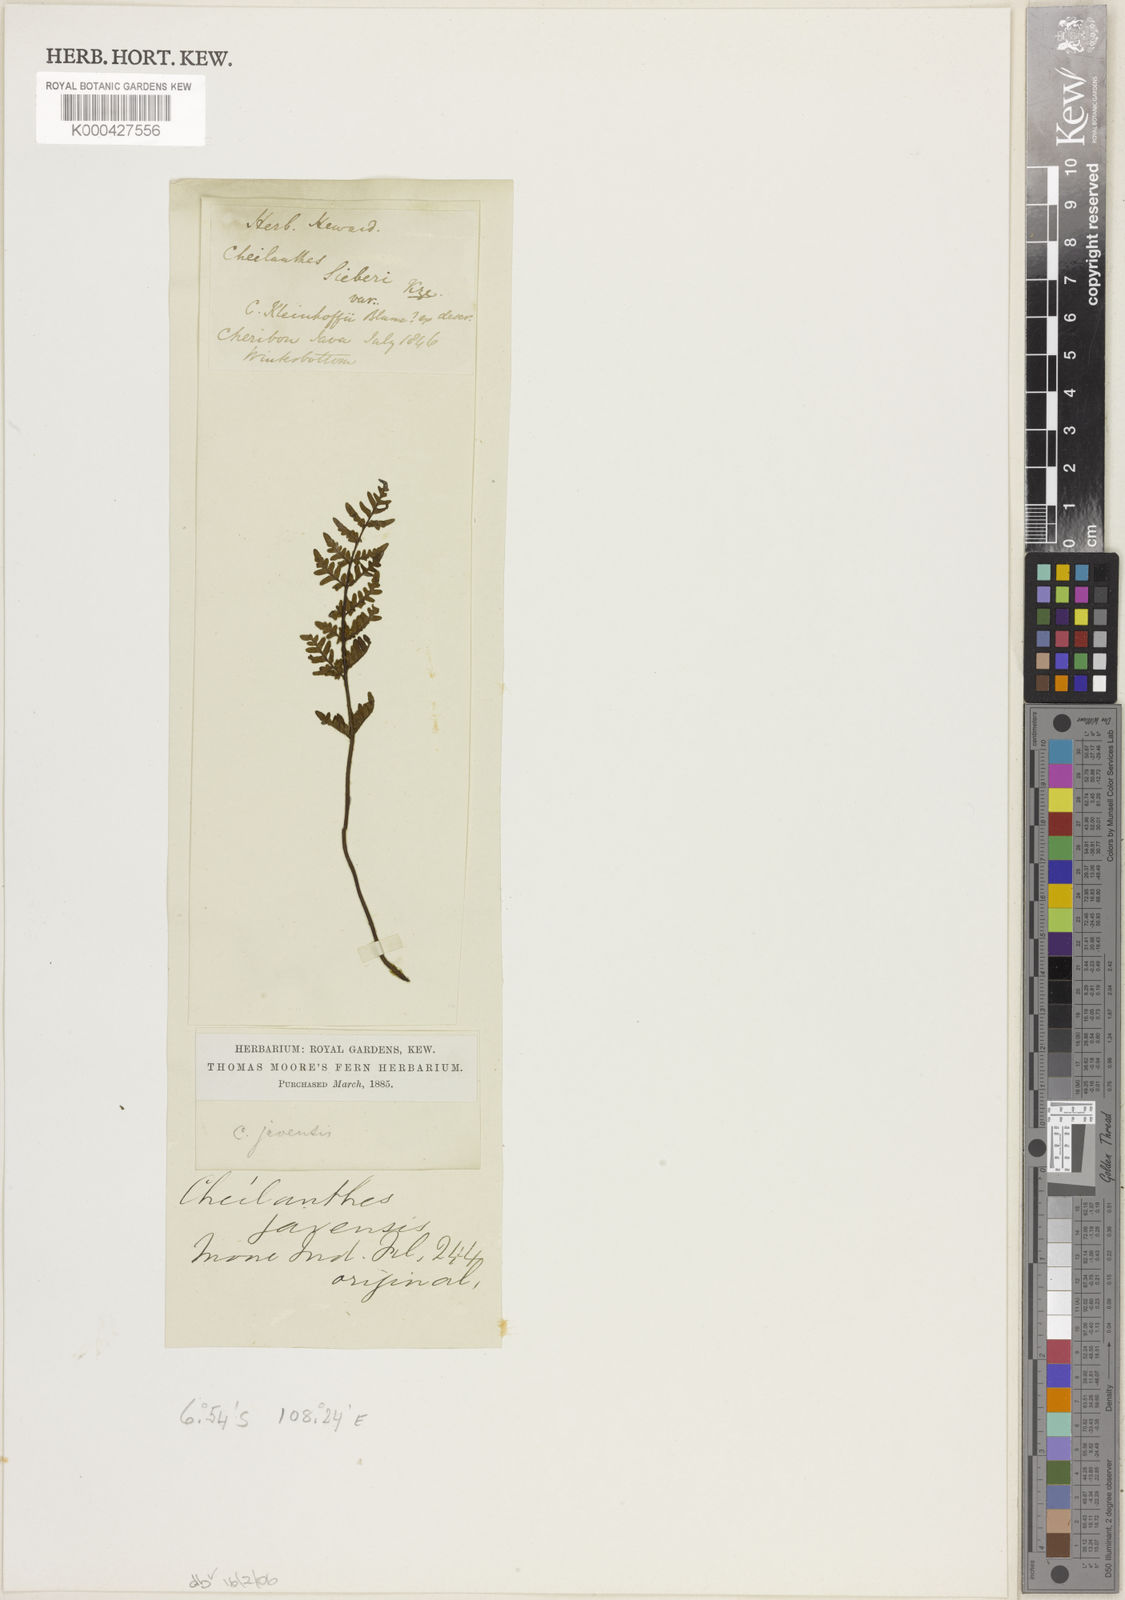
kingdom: Plantae
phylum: Tracheophyta
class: Polypodiopsida
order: Polypodiales
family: Pteridaceae
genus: Gaga
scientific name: Gaga hirsuta
